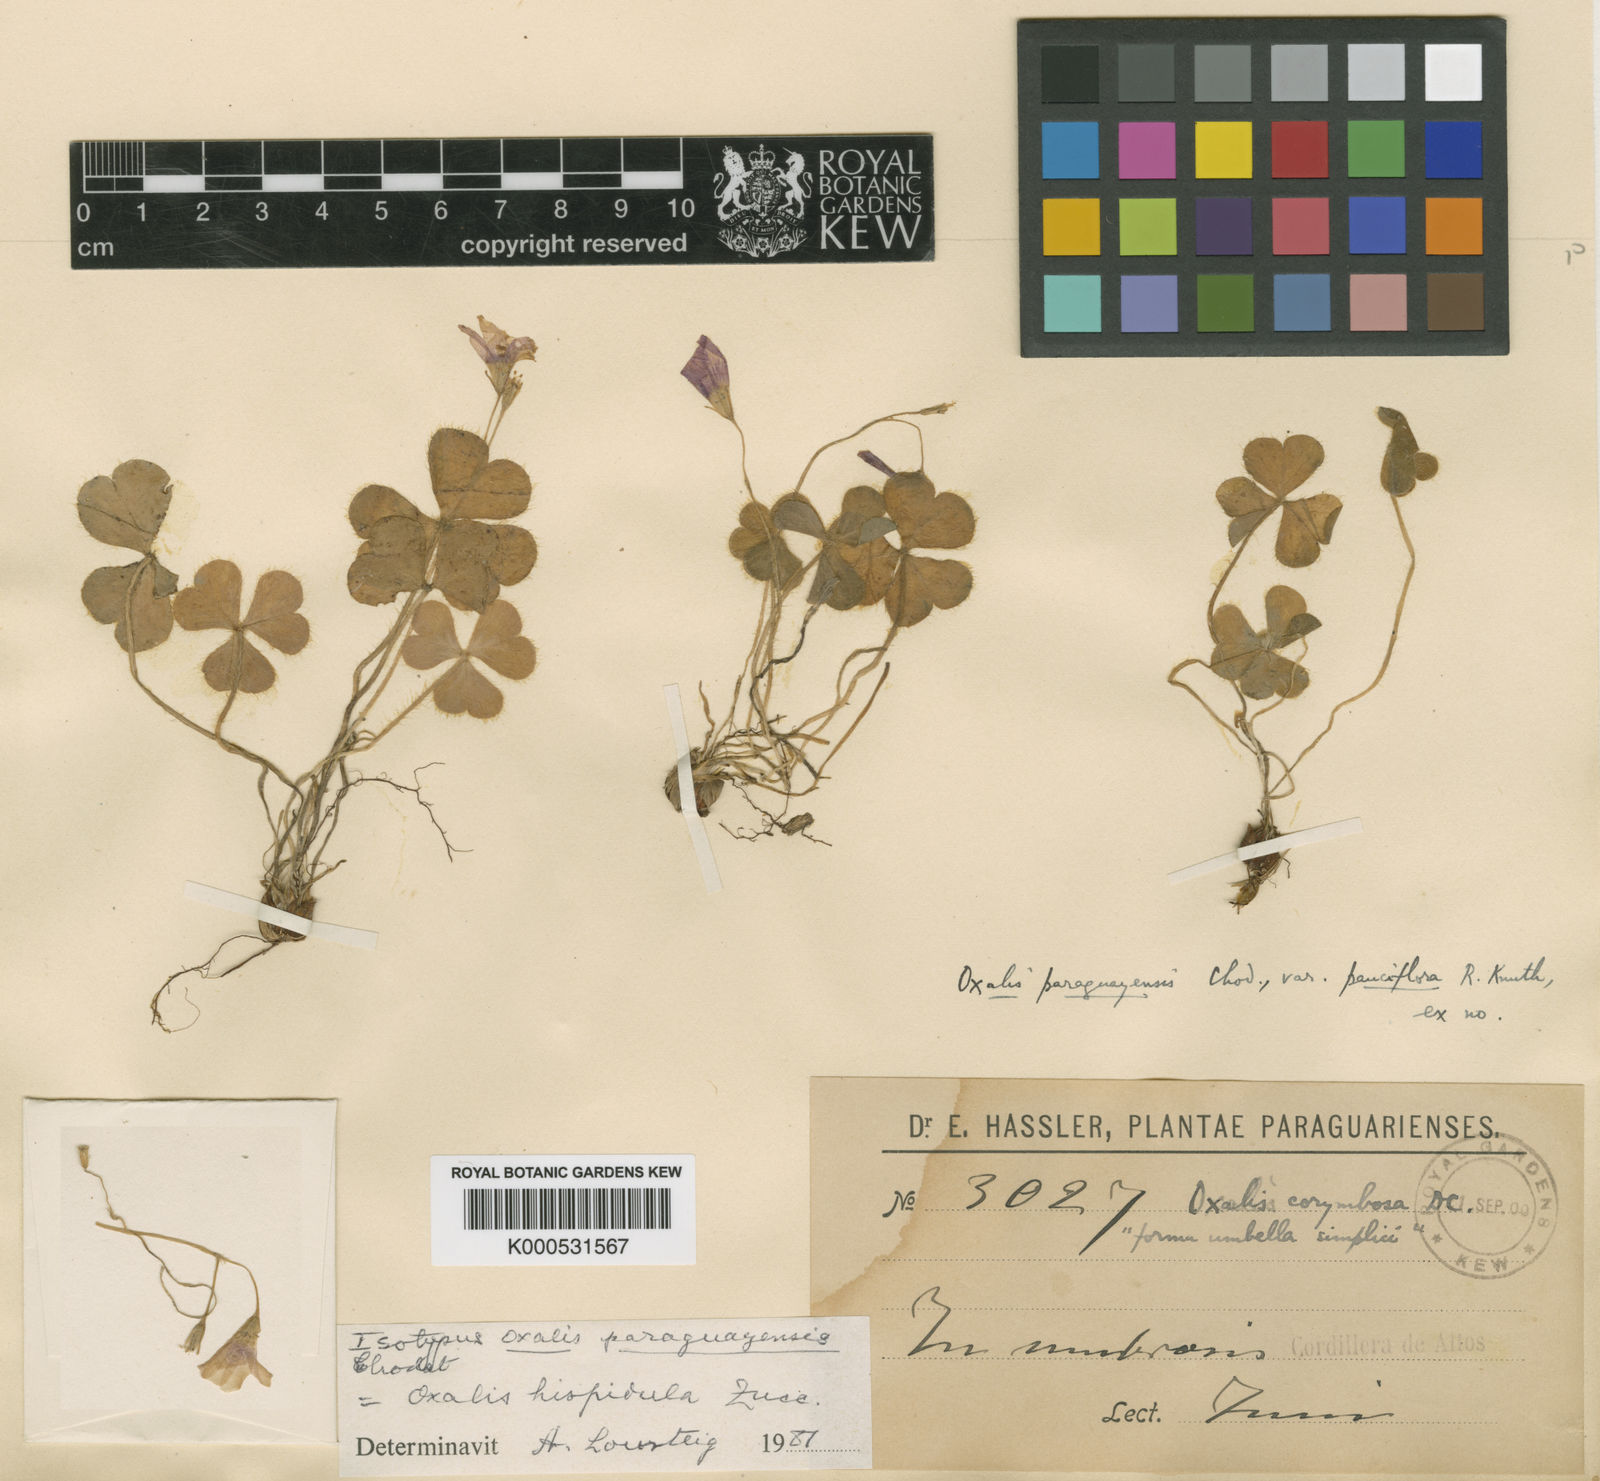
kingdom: Plantae
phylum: Tracheophyta
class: Magnoliopsida
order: Oxalidales
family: Oxalidaceae
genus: Oxalis
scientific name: Oxalis hispidula
